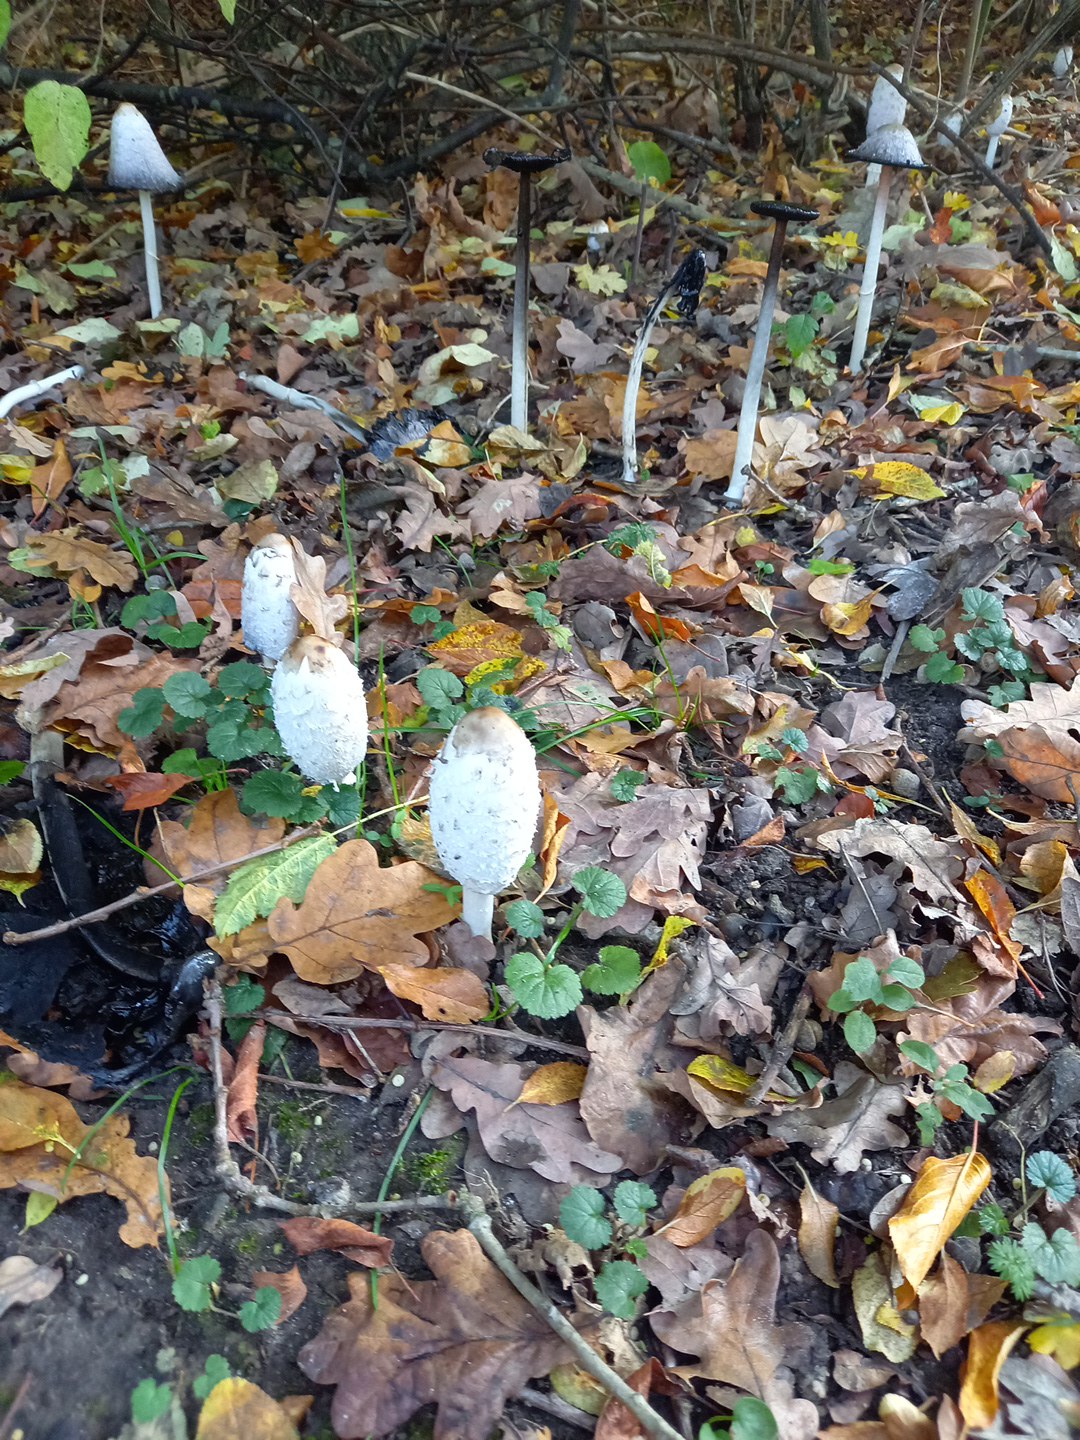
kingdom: Fungi
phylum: Basidiomycota
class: Agaricomycetes
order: Agaricales
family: Agaricaceae
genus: Coprinus
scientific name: Coprinus comatus
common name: stor parykhat
